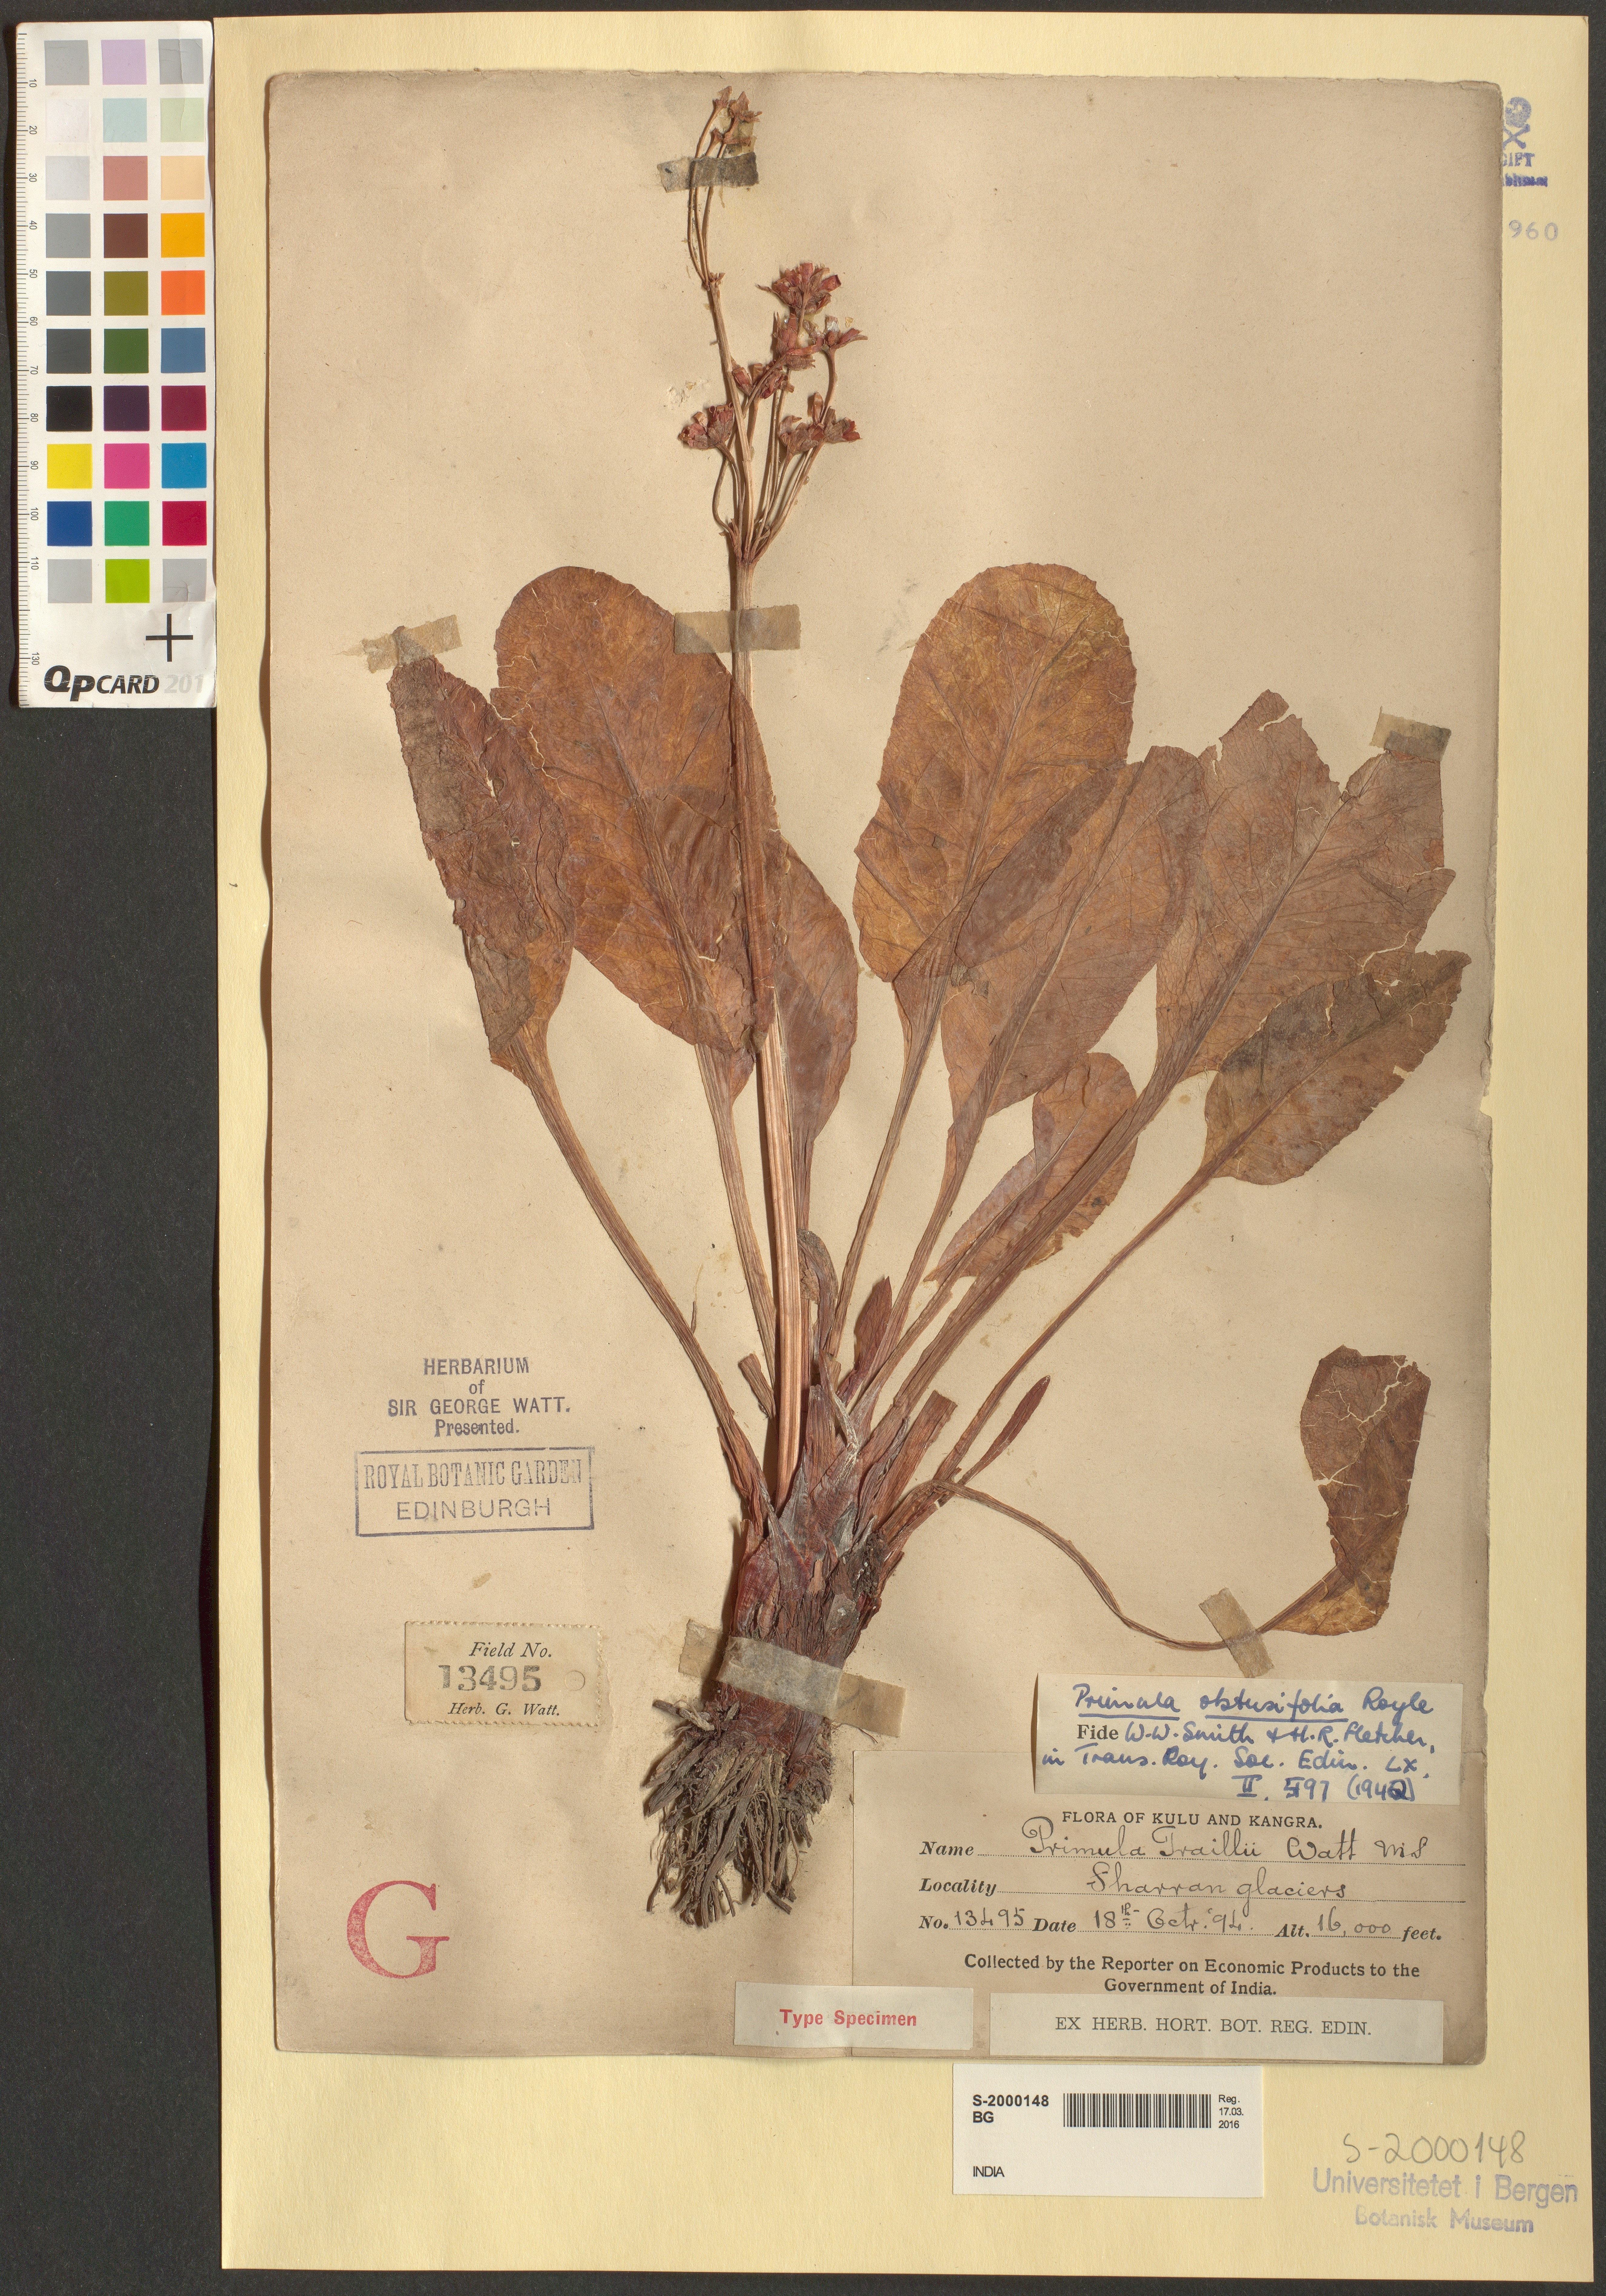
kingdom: Plantae
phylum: Tracheophyta
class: Magnoliopsida
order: Ericales
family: Primulaceae
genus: Primula
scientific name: Primula obtusifolia
